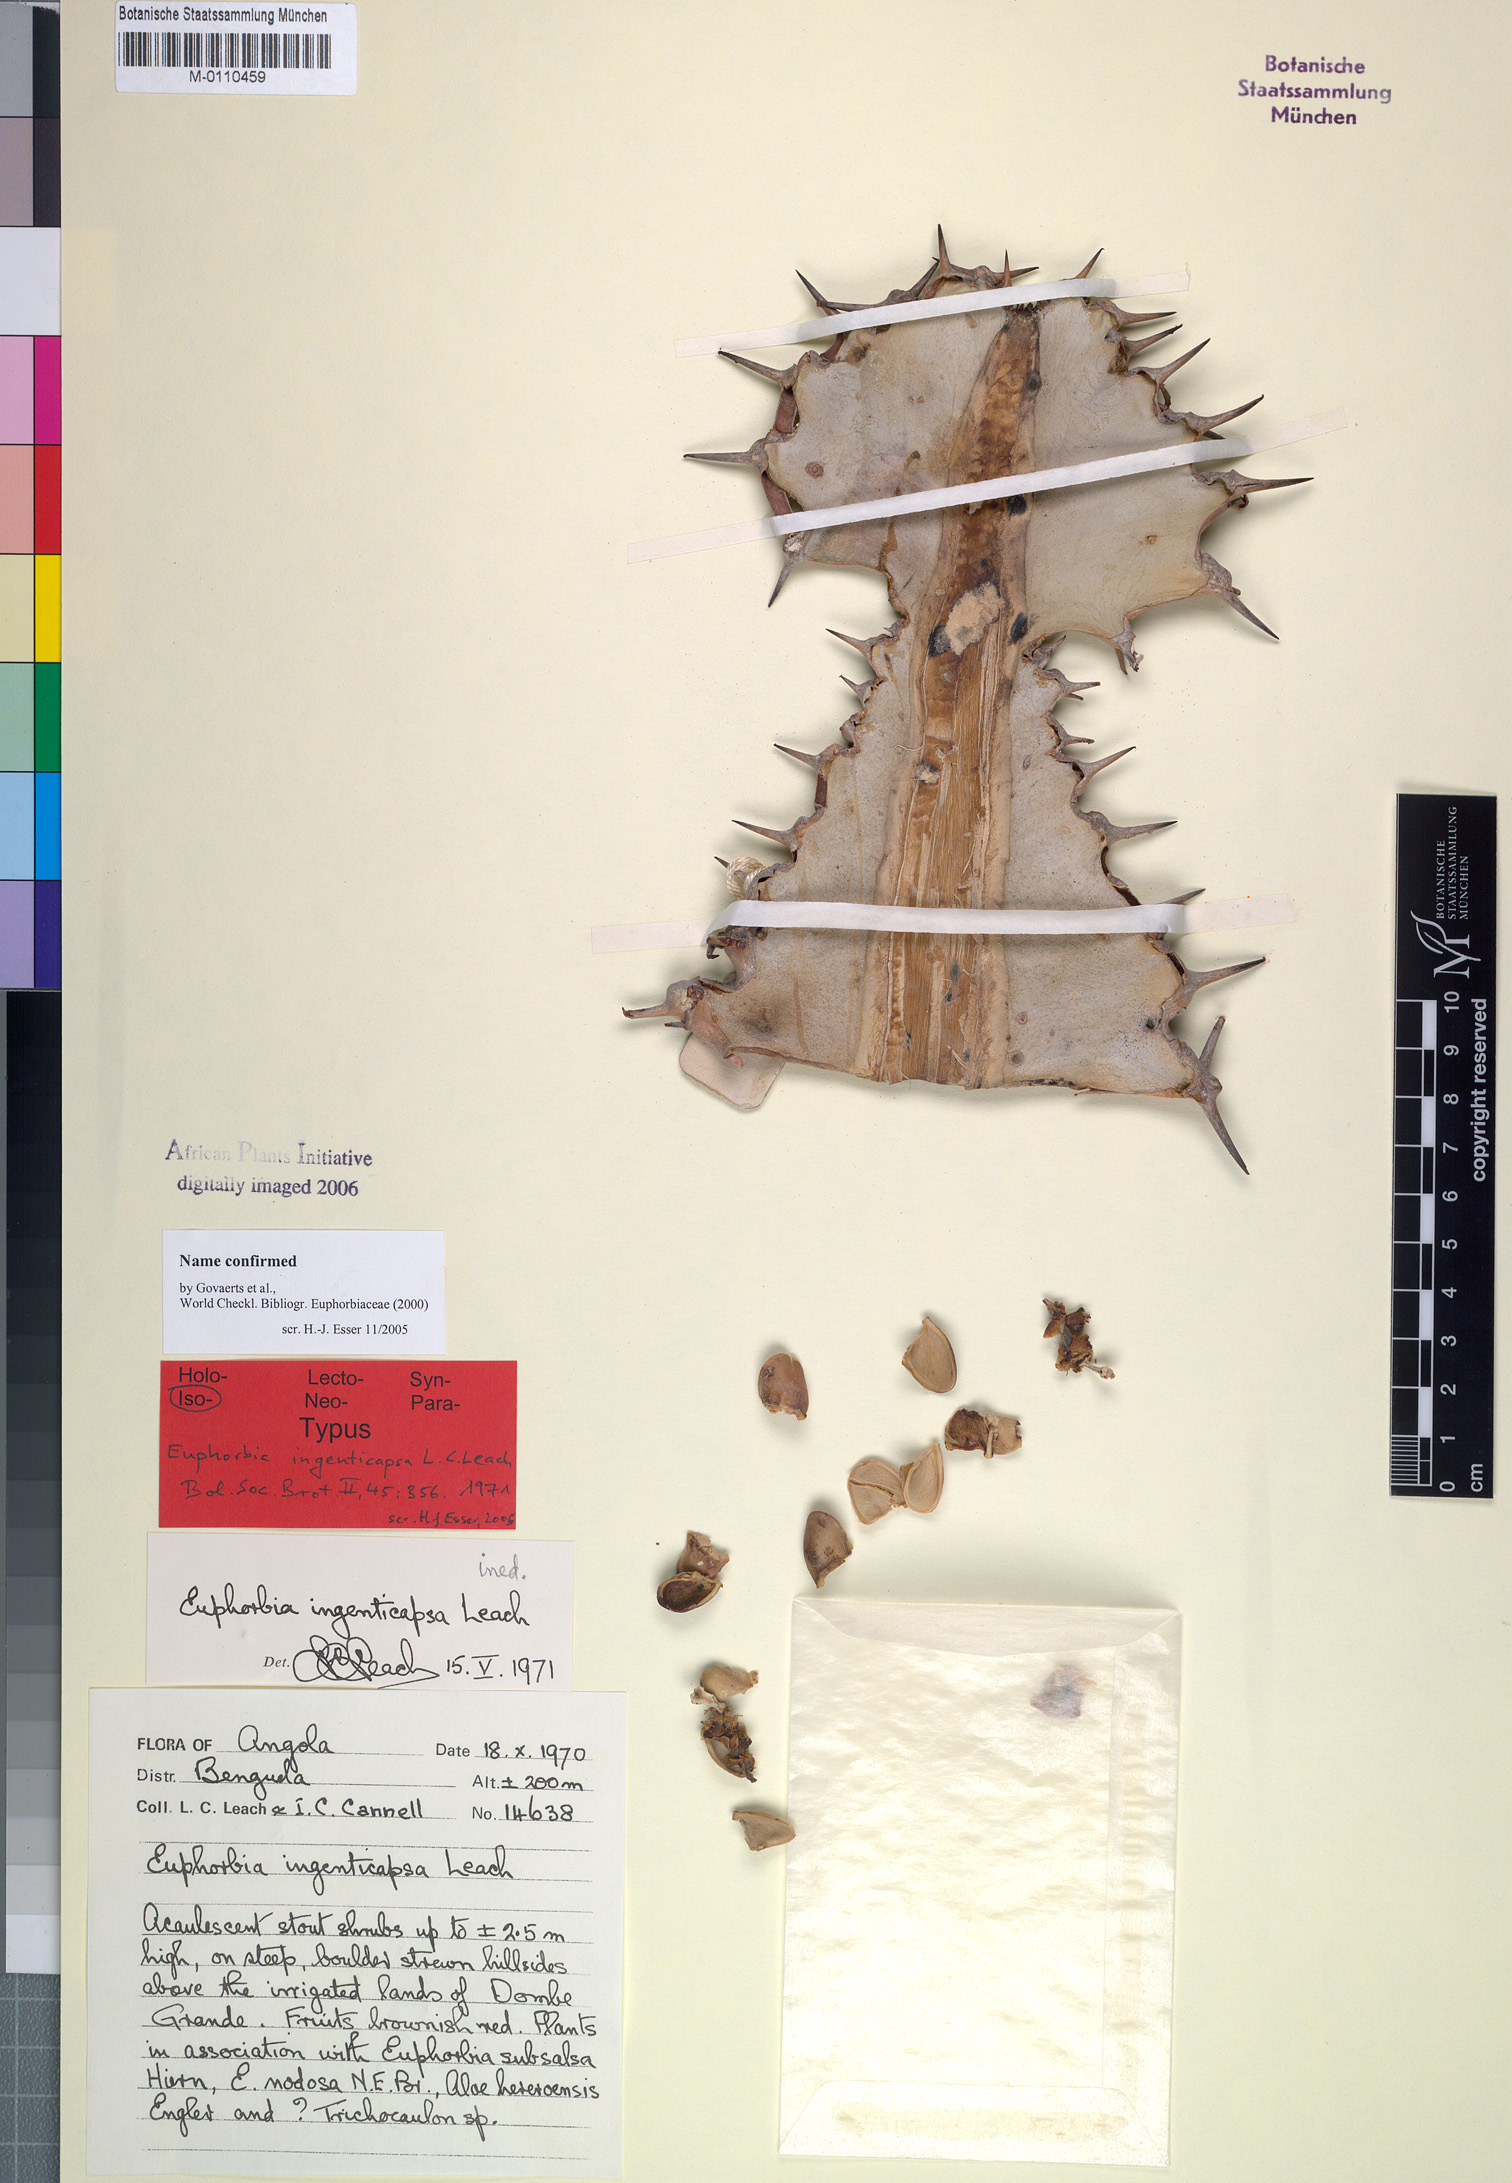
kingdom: Plantae
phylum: Tracheophyta
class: Magnoliopsida
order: Malpighiales
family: Euphorbiaceae
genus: Euphorbia
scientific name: Euphorbia ingenticapsa
